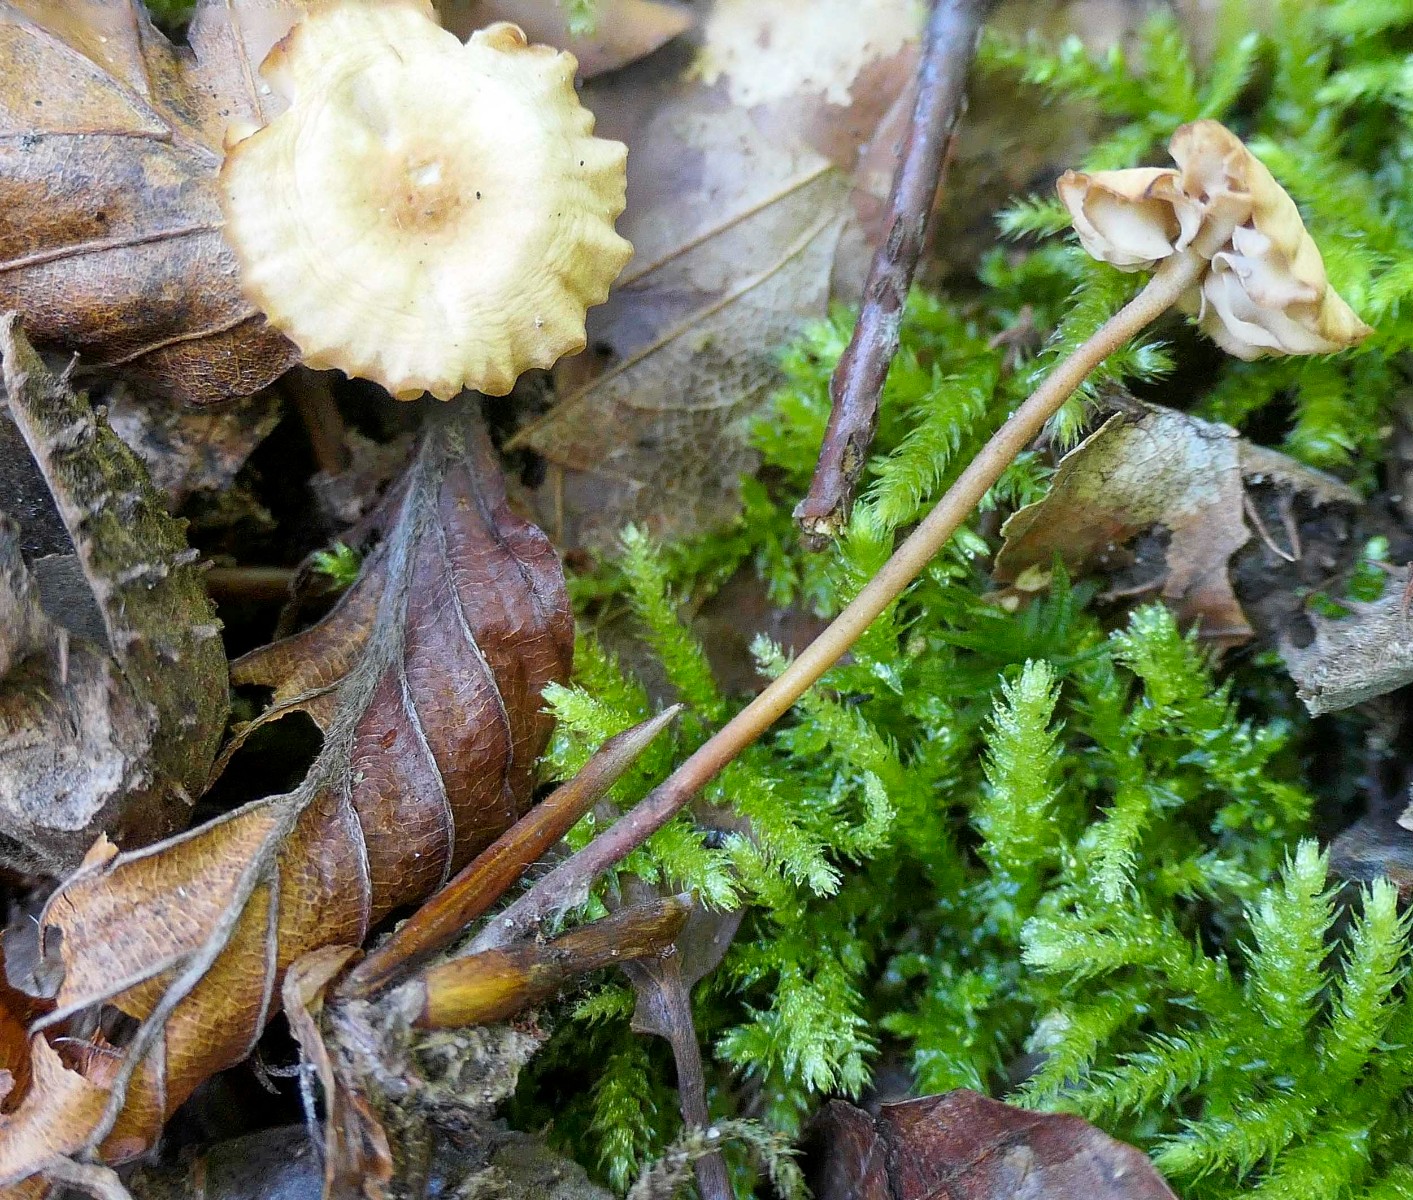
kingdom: Fungi
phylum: Basidiomycota
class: Agaricomycetes
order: Agaricales
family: Marasmiaceae
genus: Marasmius
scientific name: Marasmius cohaerens
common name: hornstokket bruskhat
